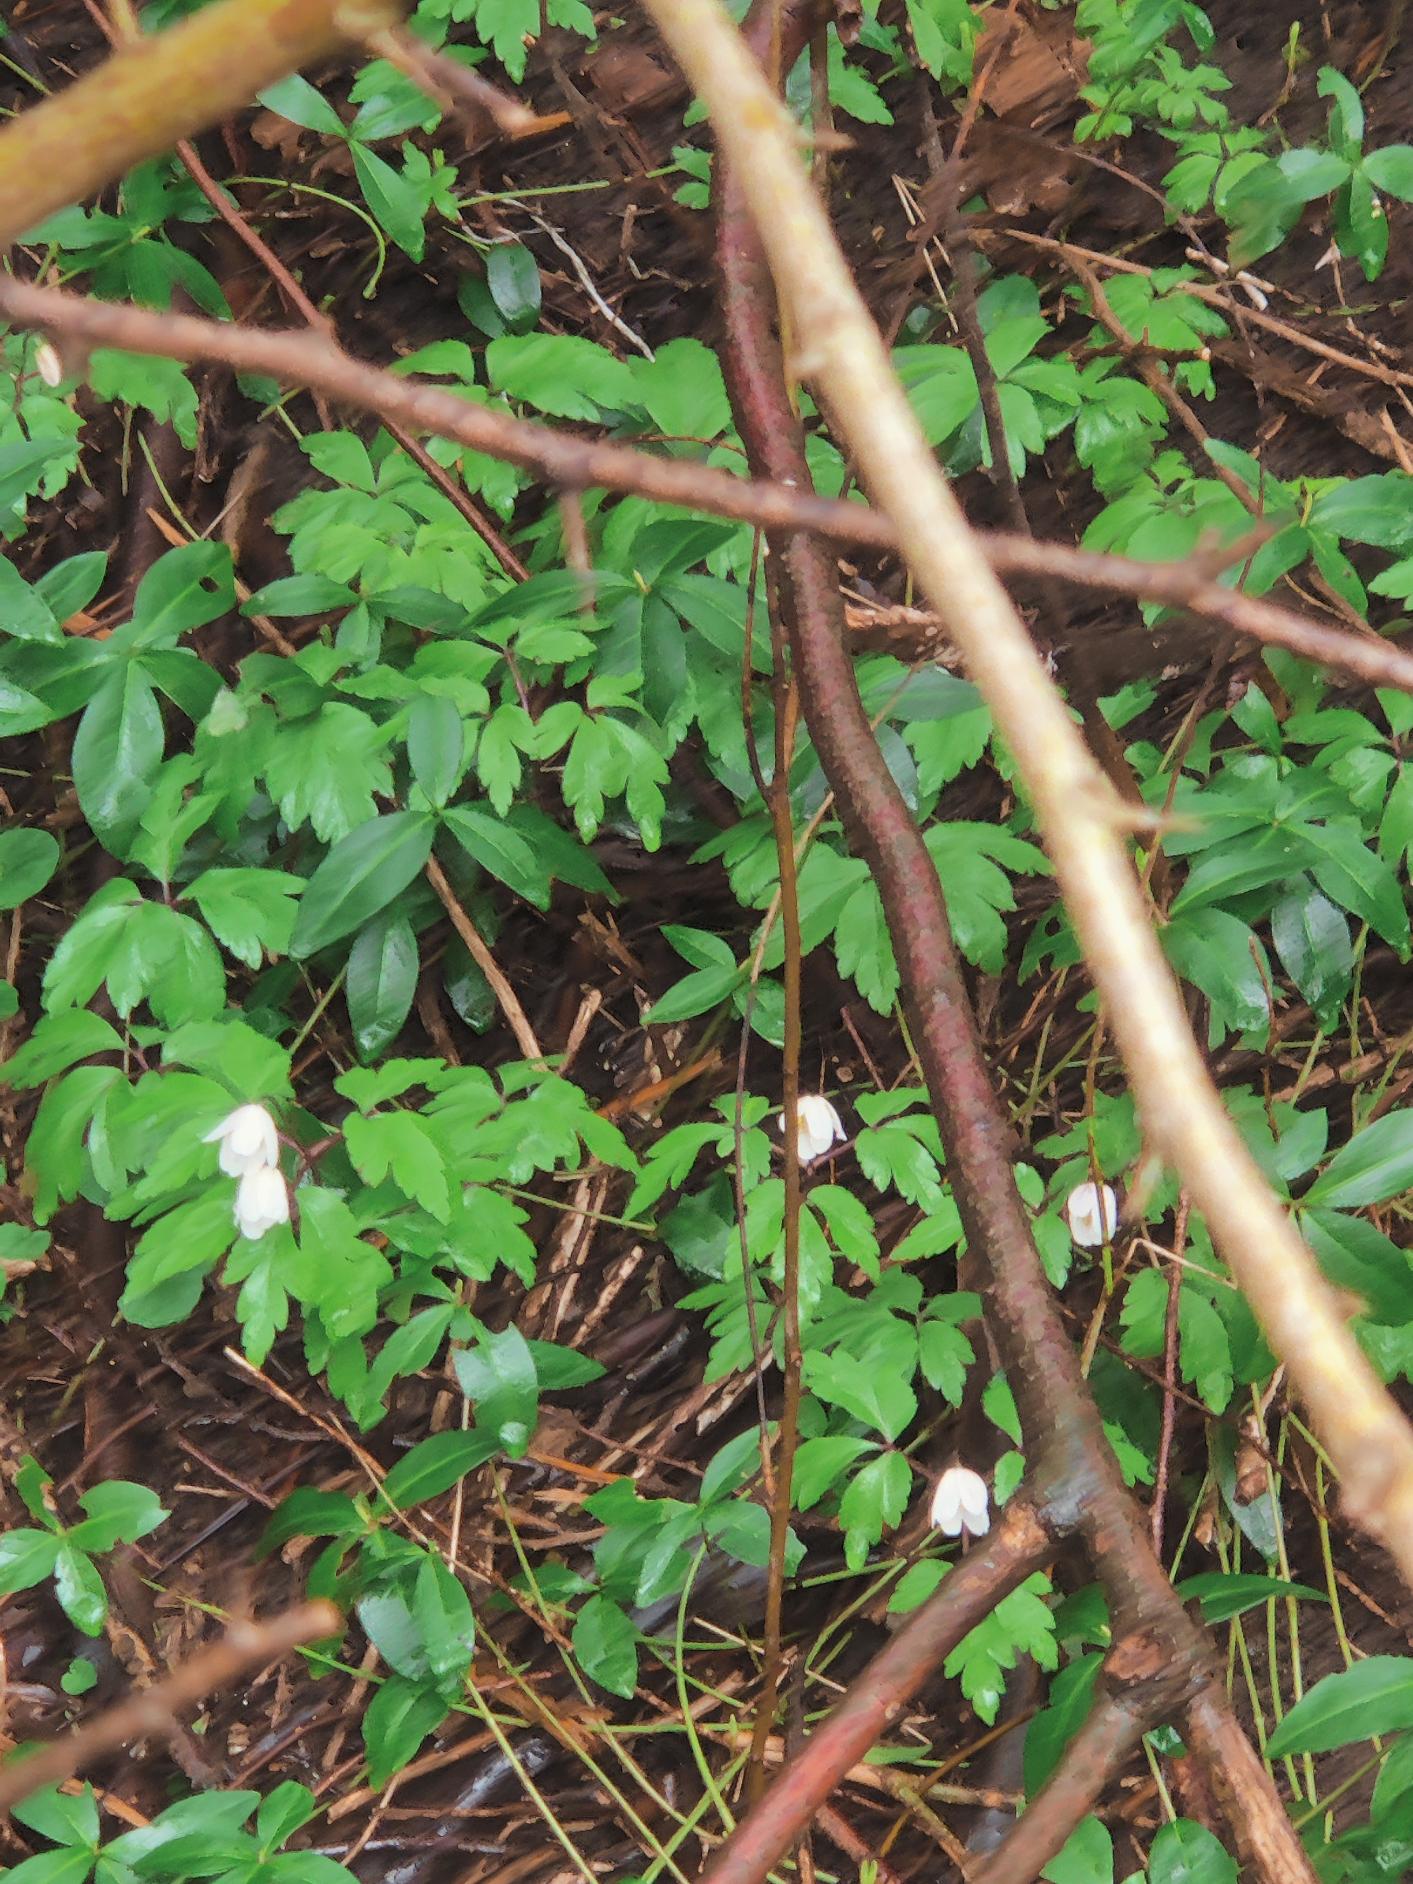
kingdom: Plantae
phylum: Tracheophyta
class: Magnoliopsida
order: Ranunculales
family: Ranunculaceae
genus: Anemone
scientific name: Anemone nemorosa
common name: Hvid anemone
